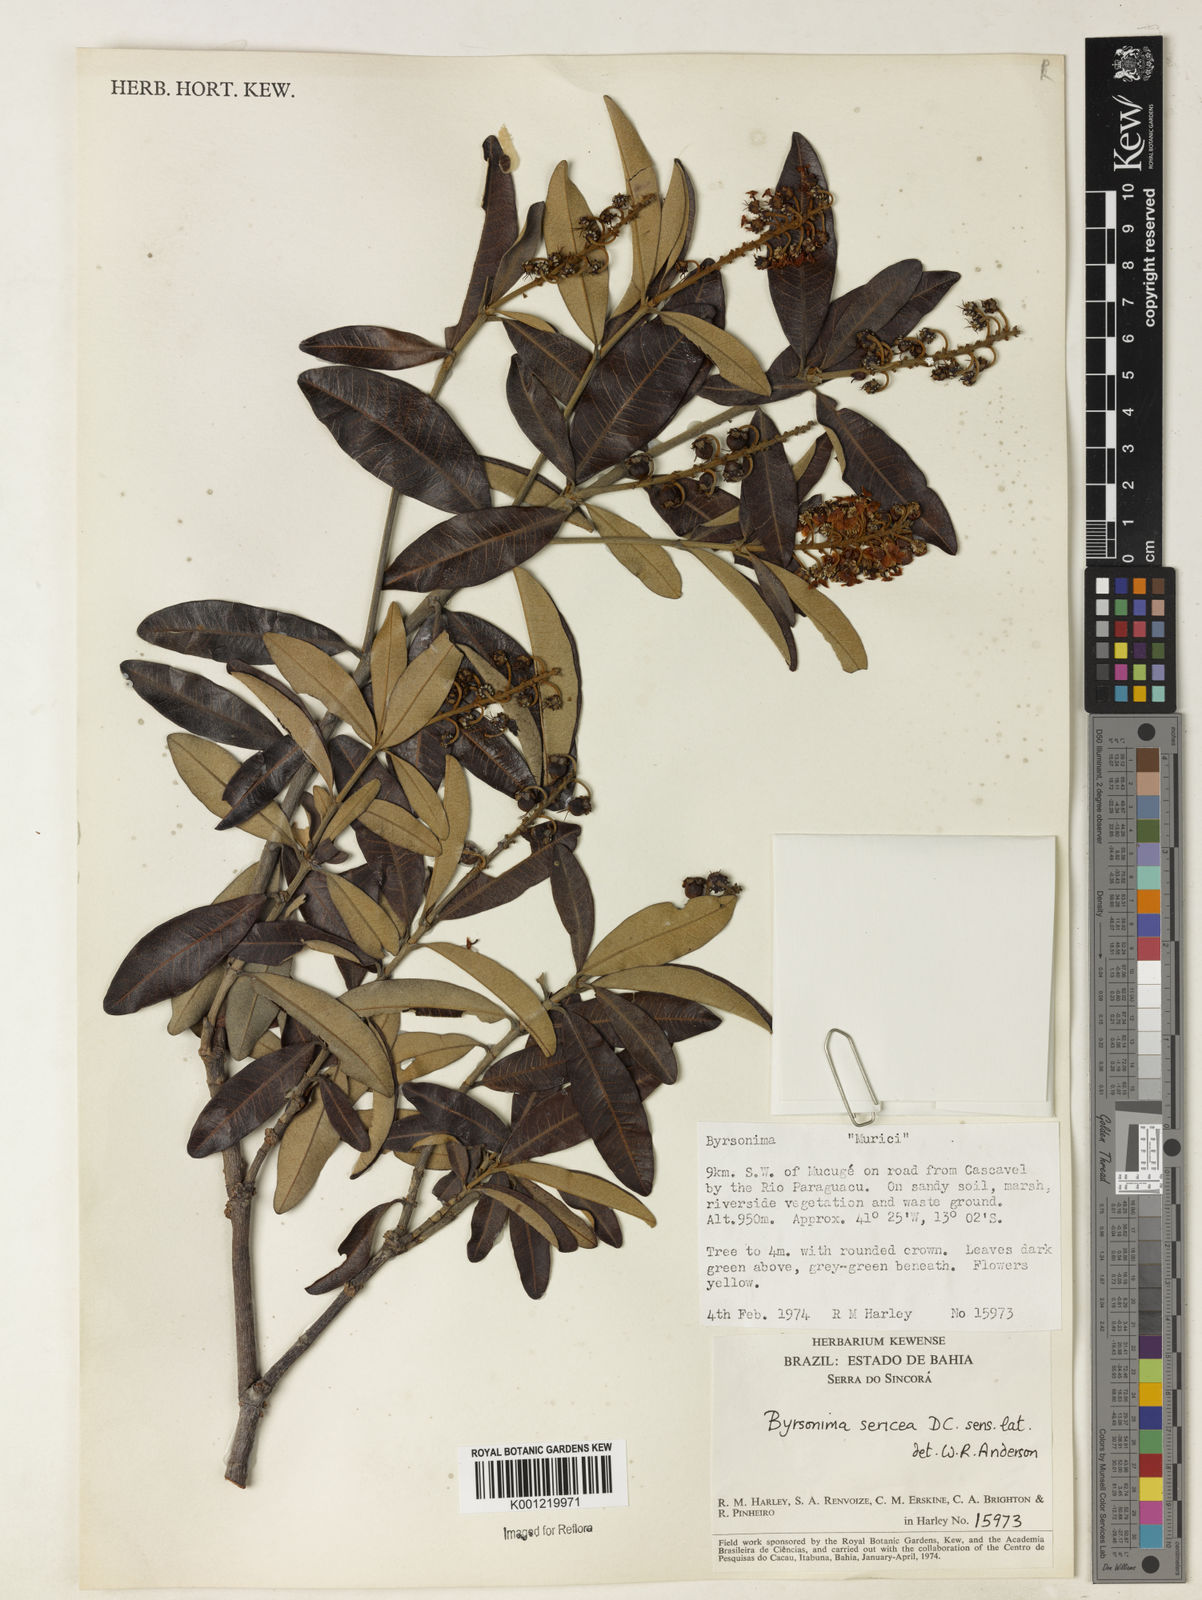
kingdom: Plantae
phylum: Tracheophyta
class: Magnoliopsida
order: Malpighiales
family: Malpighiaceae
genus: Byrsonima
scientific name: Byrsonima sericea
